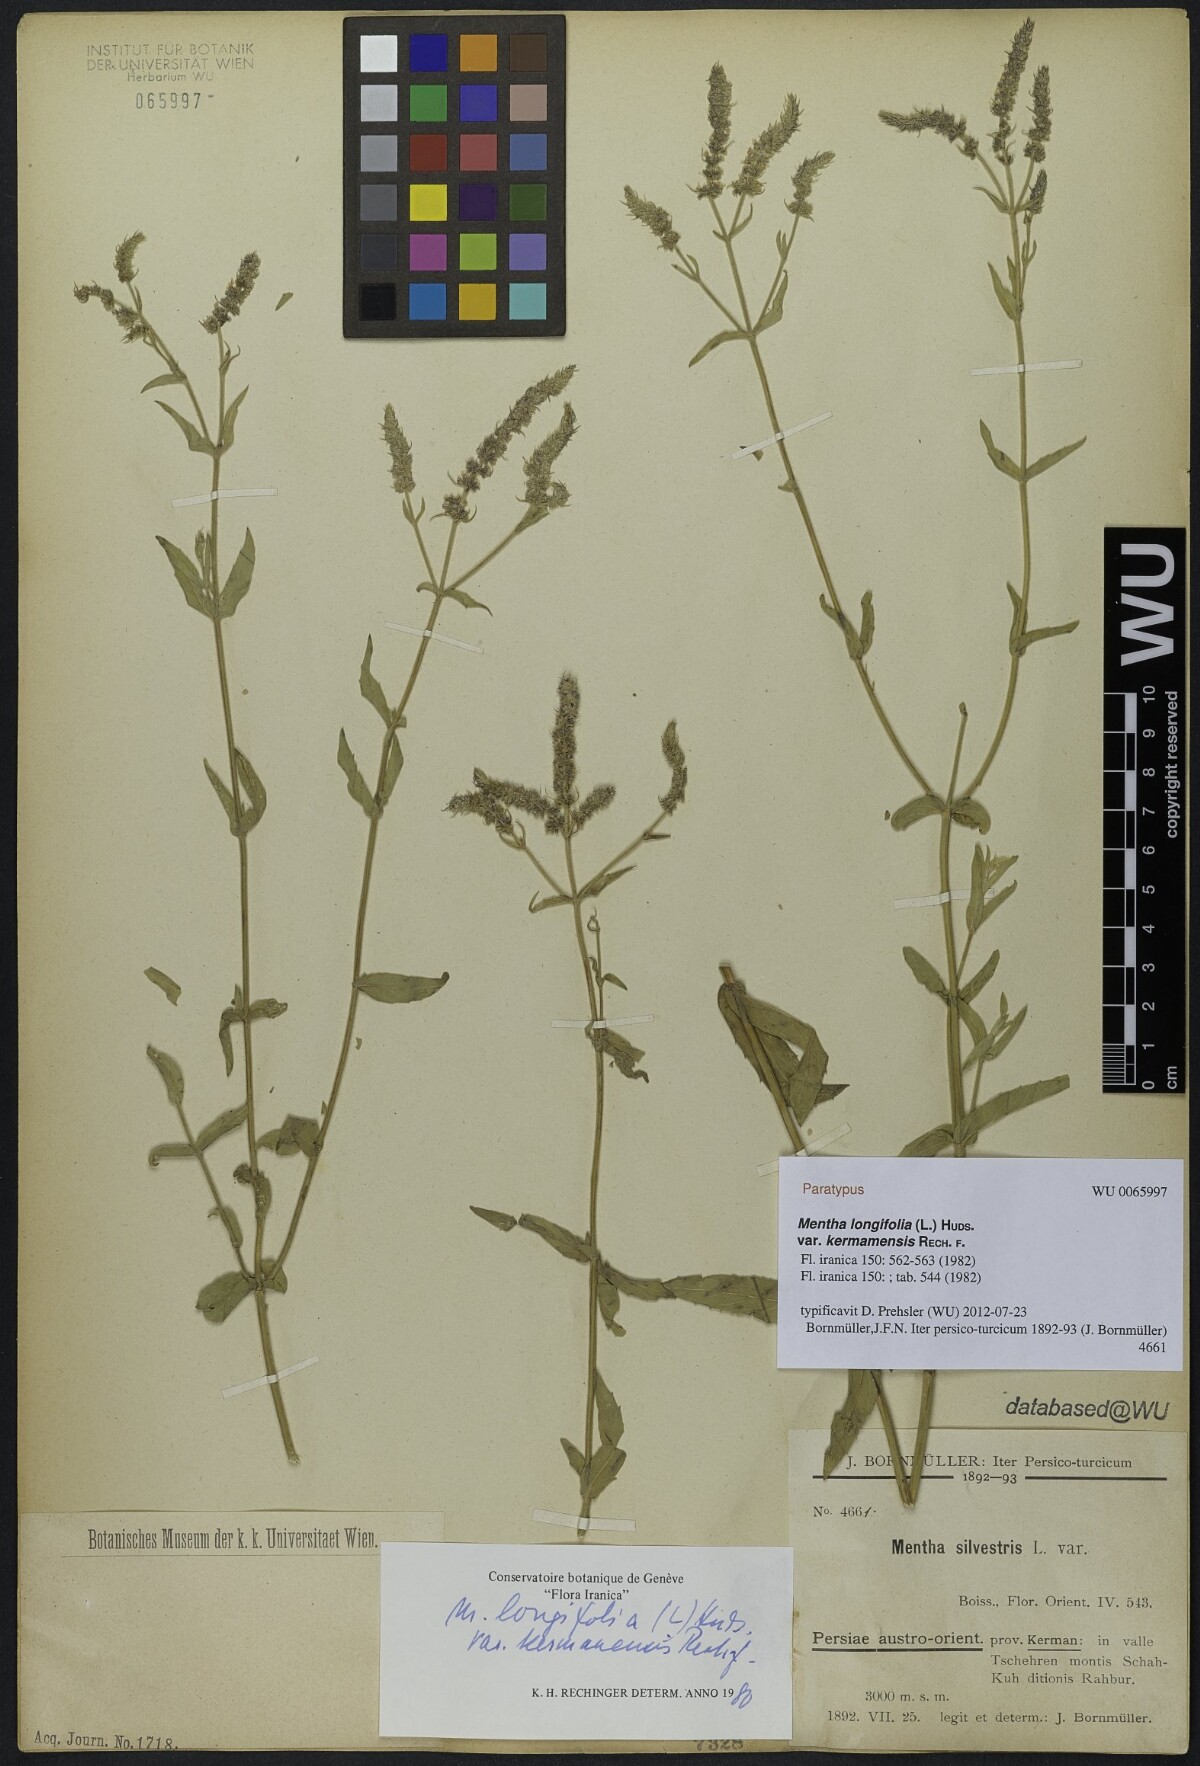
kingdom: Plantae
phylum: Tracheophyta
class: Magnoliopsida
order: Lamiales
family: Lamiaceae
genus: Mentha
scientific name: Mentha longifolia
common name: Horse mint
